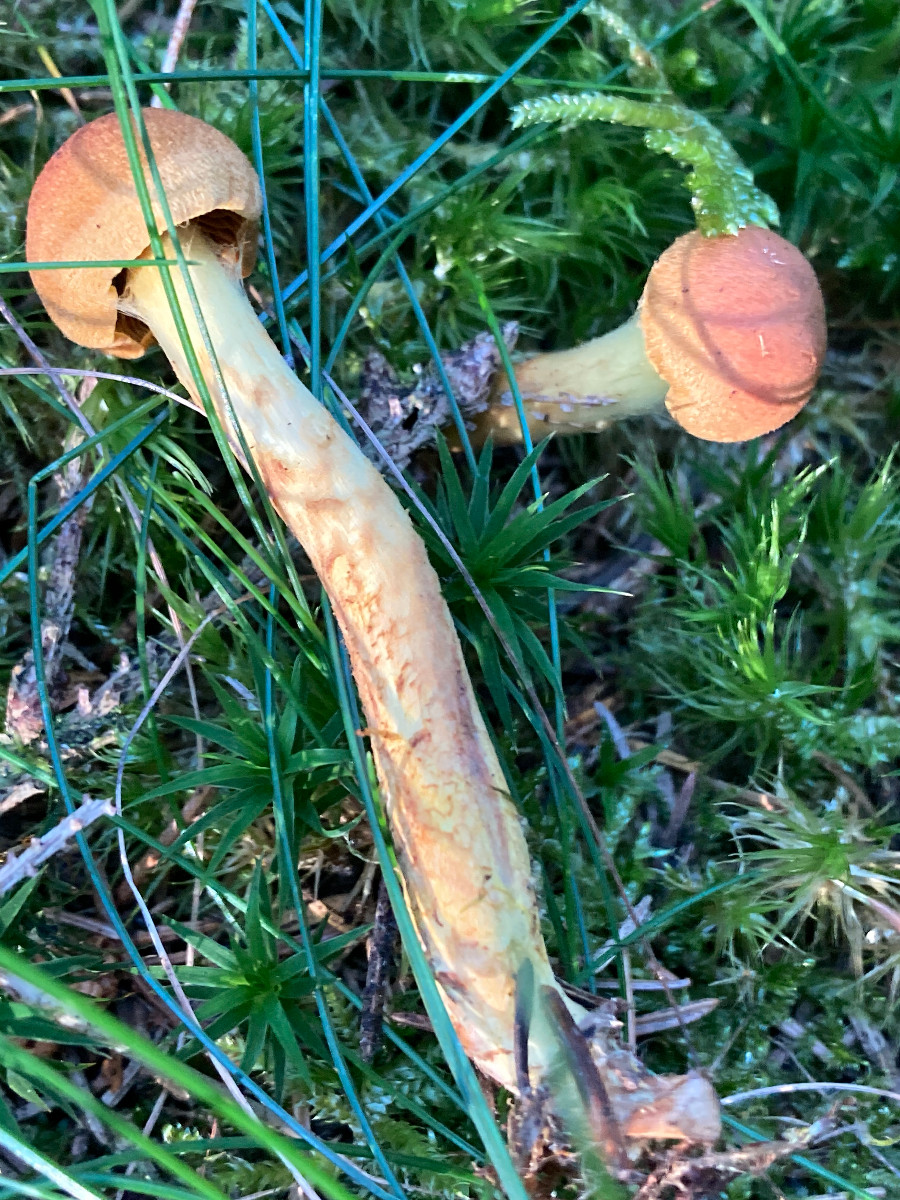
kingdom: Fungi
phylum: Basidiomycota
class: Agaricomycetes
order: Agaricales
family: Cortinariaceae
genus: Cortinarius
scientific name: Cortinarius
